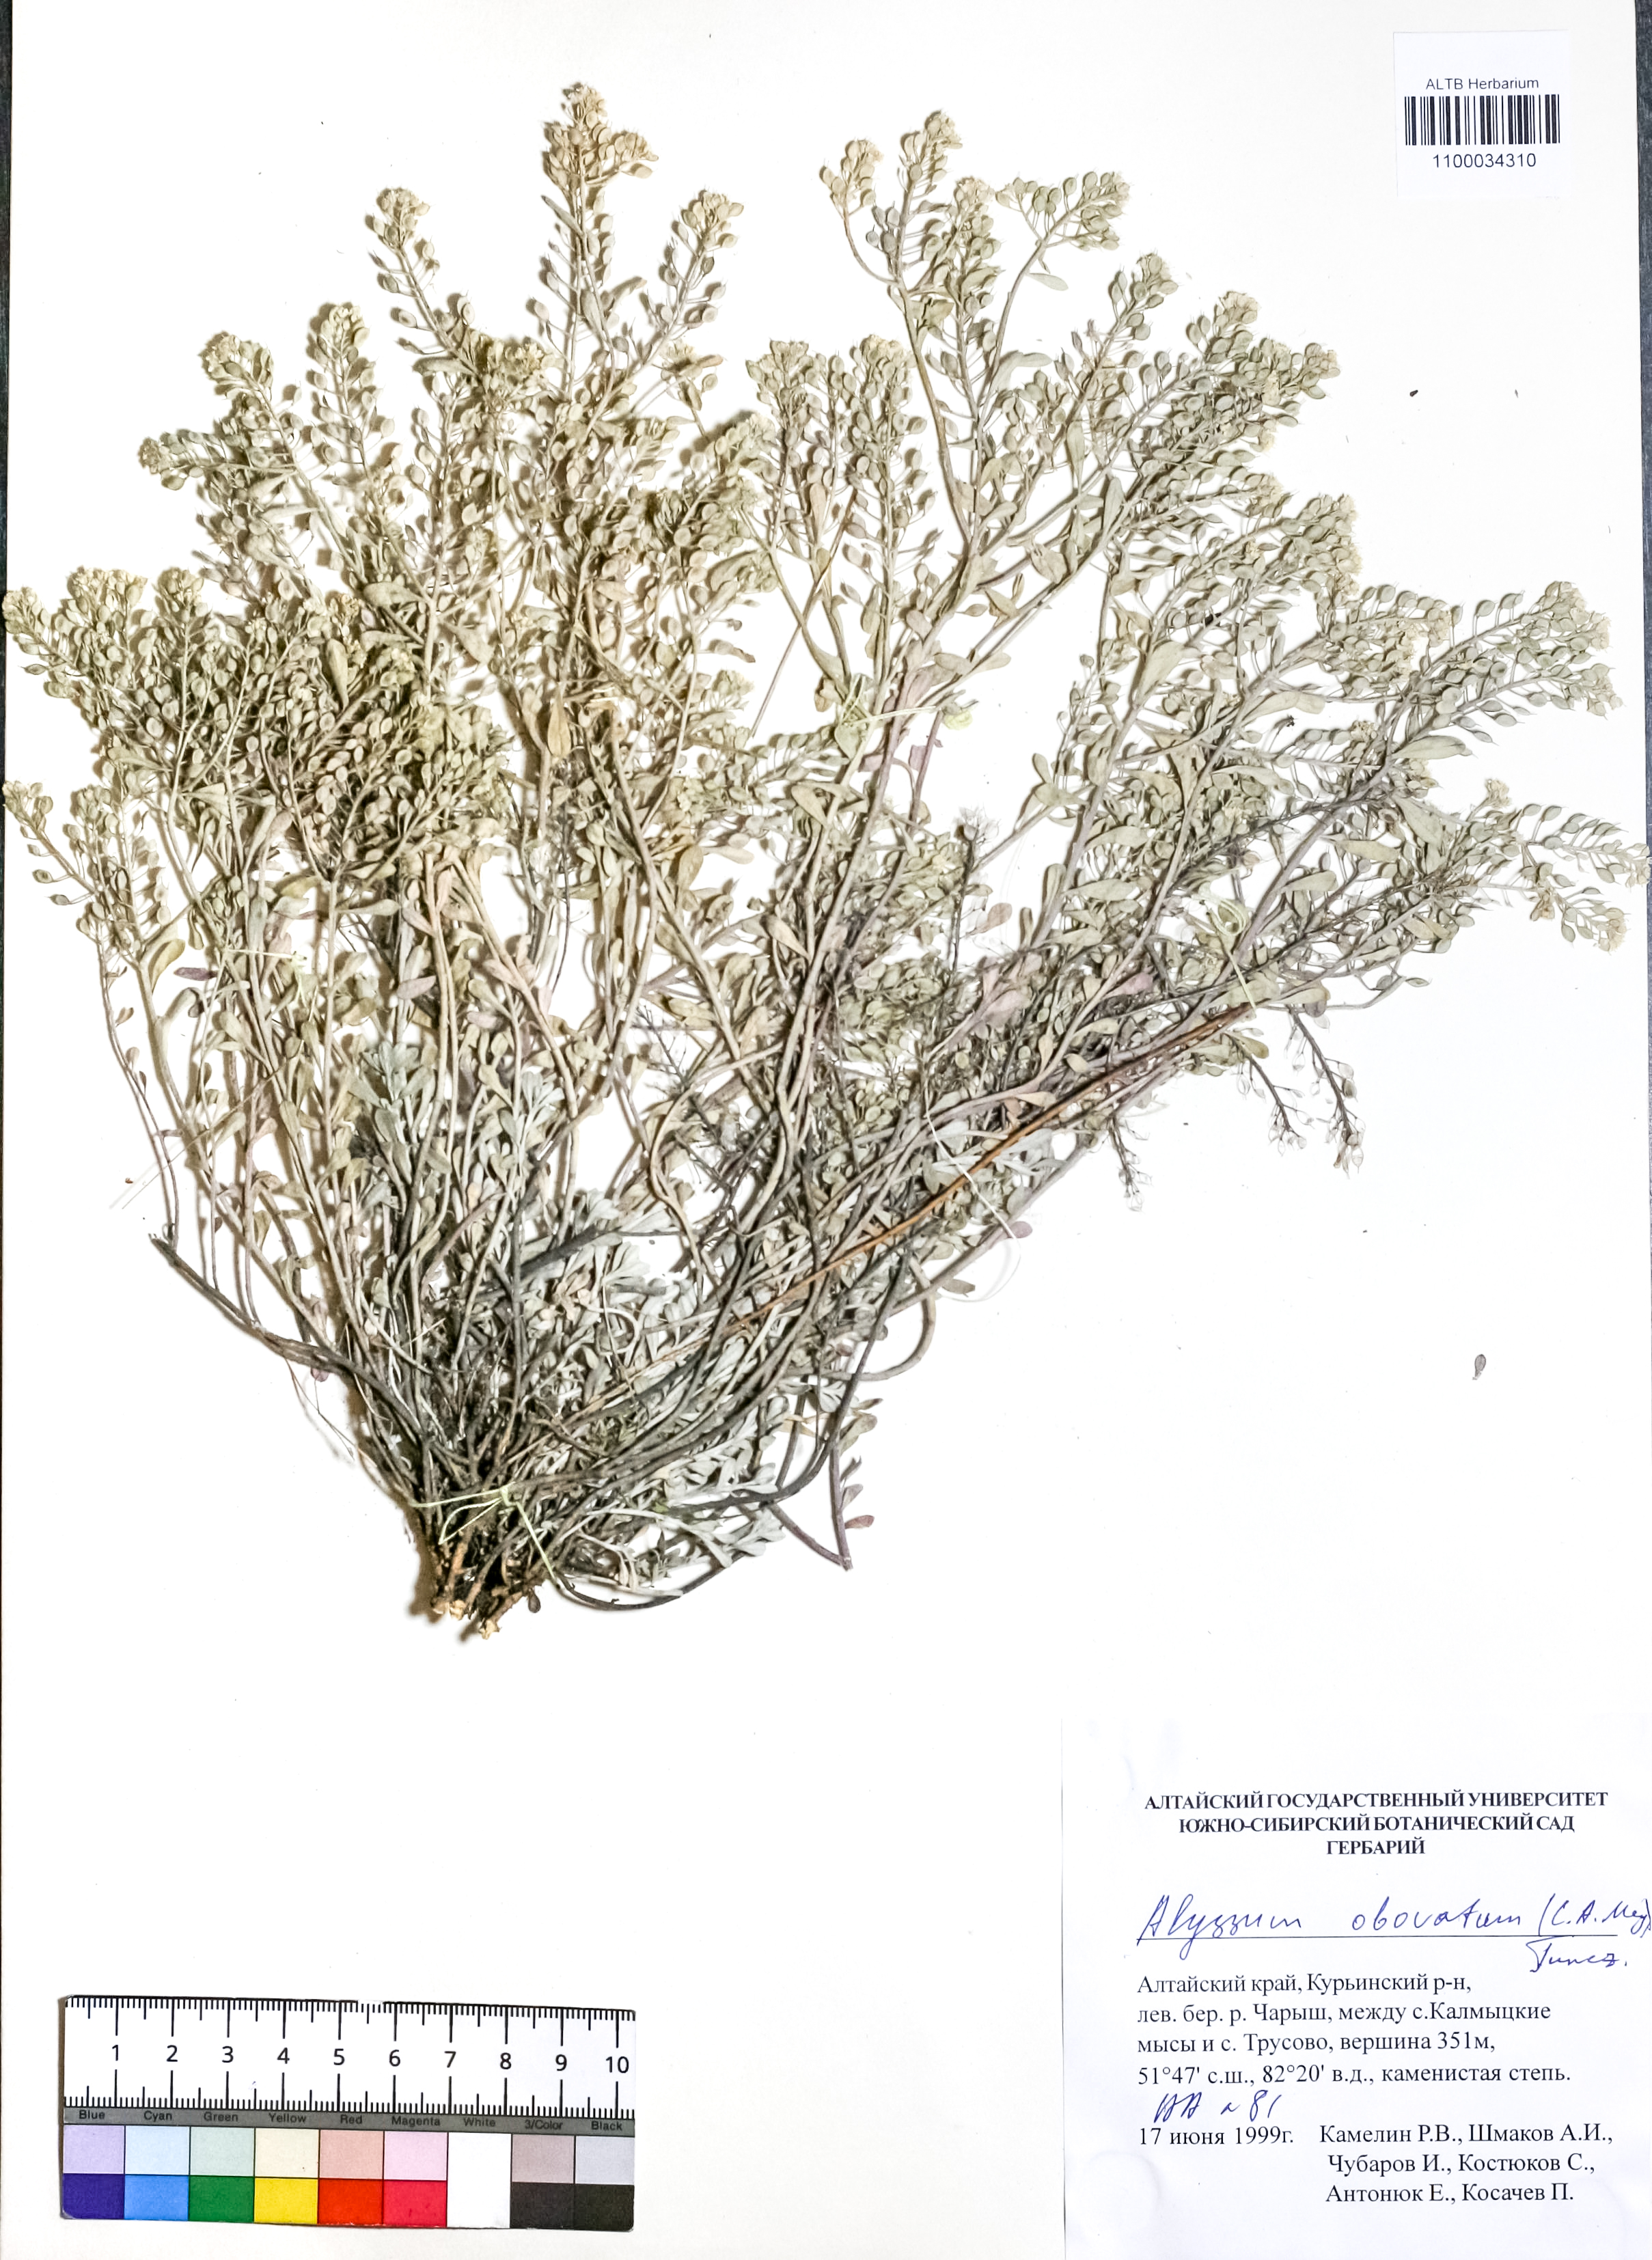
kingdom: Plantae
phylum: Tracheophyta
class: Magnoliopsida
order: Brassicales
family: Brassicaceae
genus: Odontarrhena
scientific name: Odontarrhena obovata
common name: American alyssum
